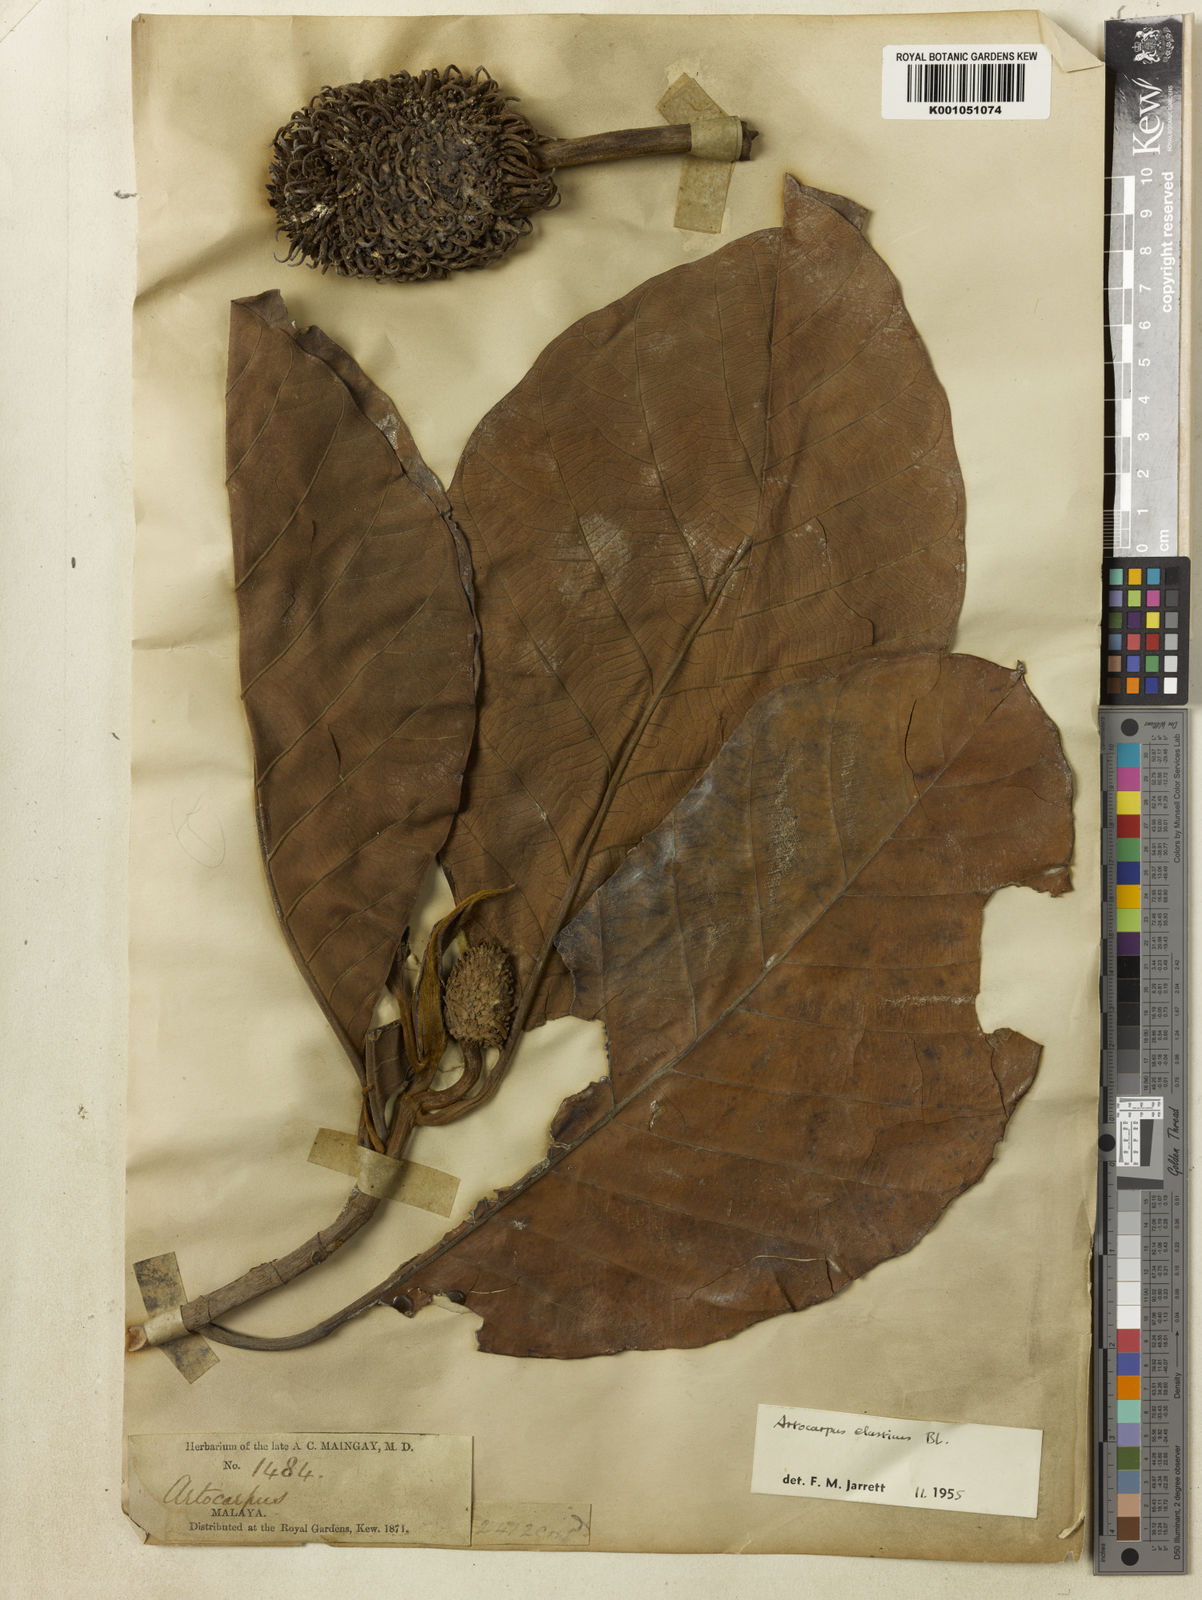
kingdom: Plantae
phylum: Tracheophyta
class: Magnoliopsida
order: Rosales
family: Moraceae
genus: Artocarpus
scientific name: Artocarpus
